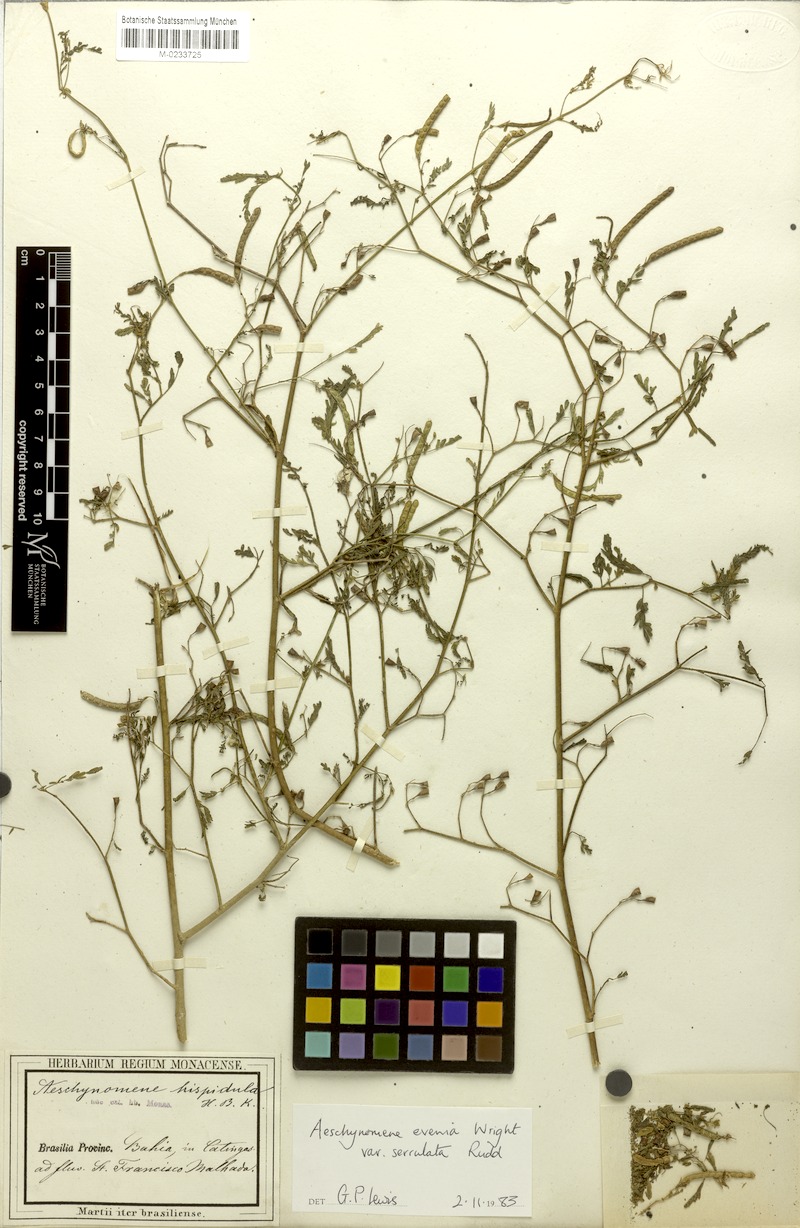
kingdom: Plantae
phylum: Tracheophyta
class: Magnoliopsida
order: Fabales
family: Fabaceae
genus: Aeschynomene
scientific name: Aeschynomene evenia
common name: Shrubby jointvetch
